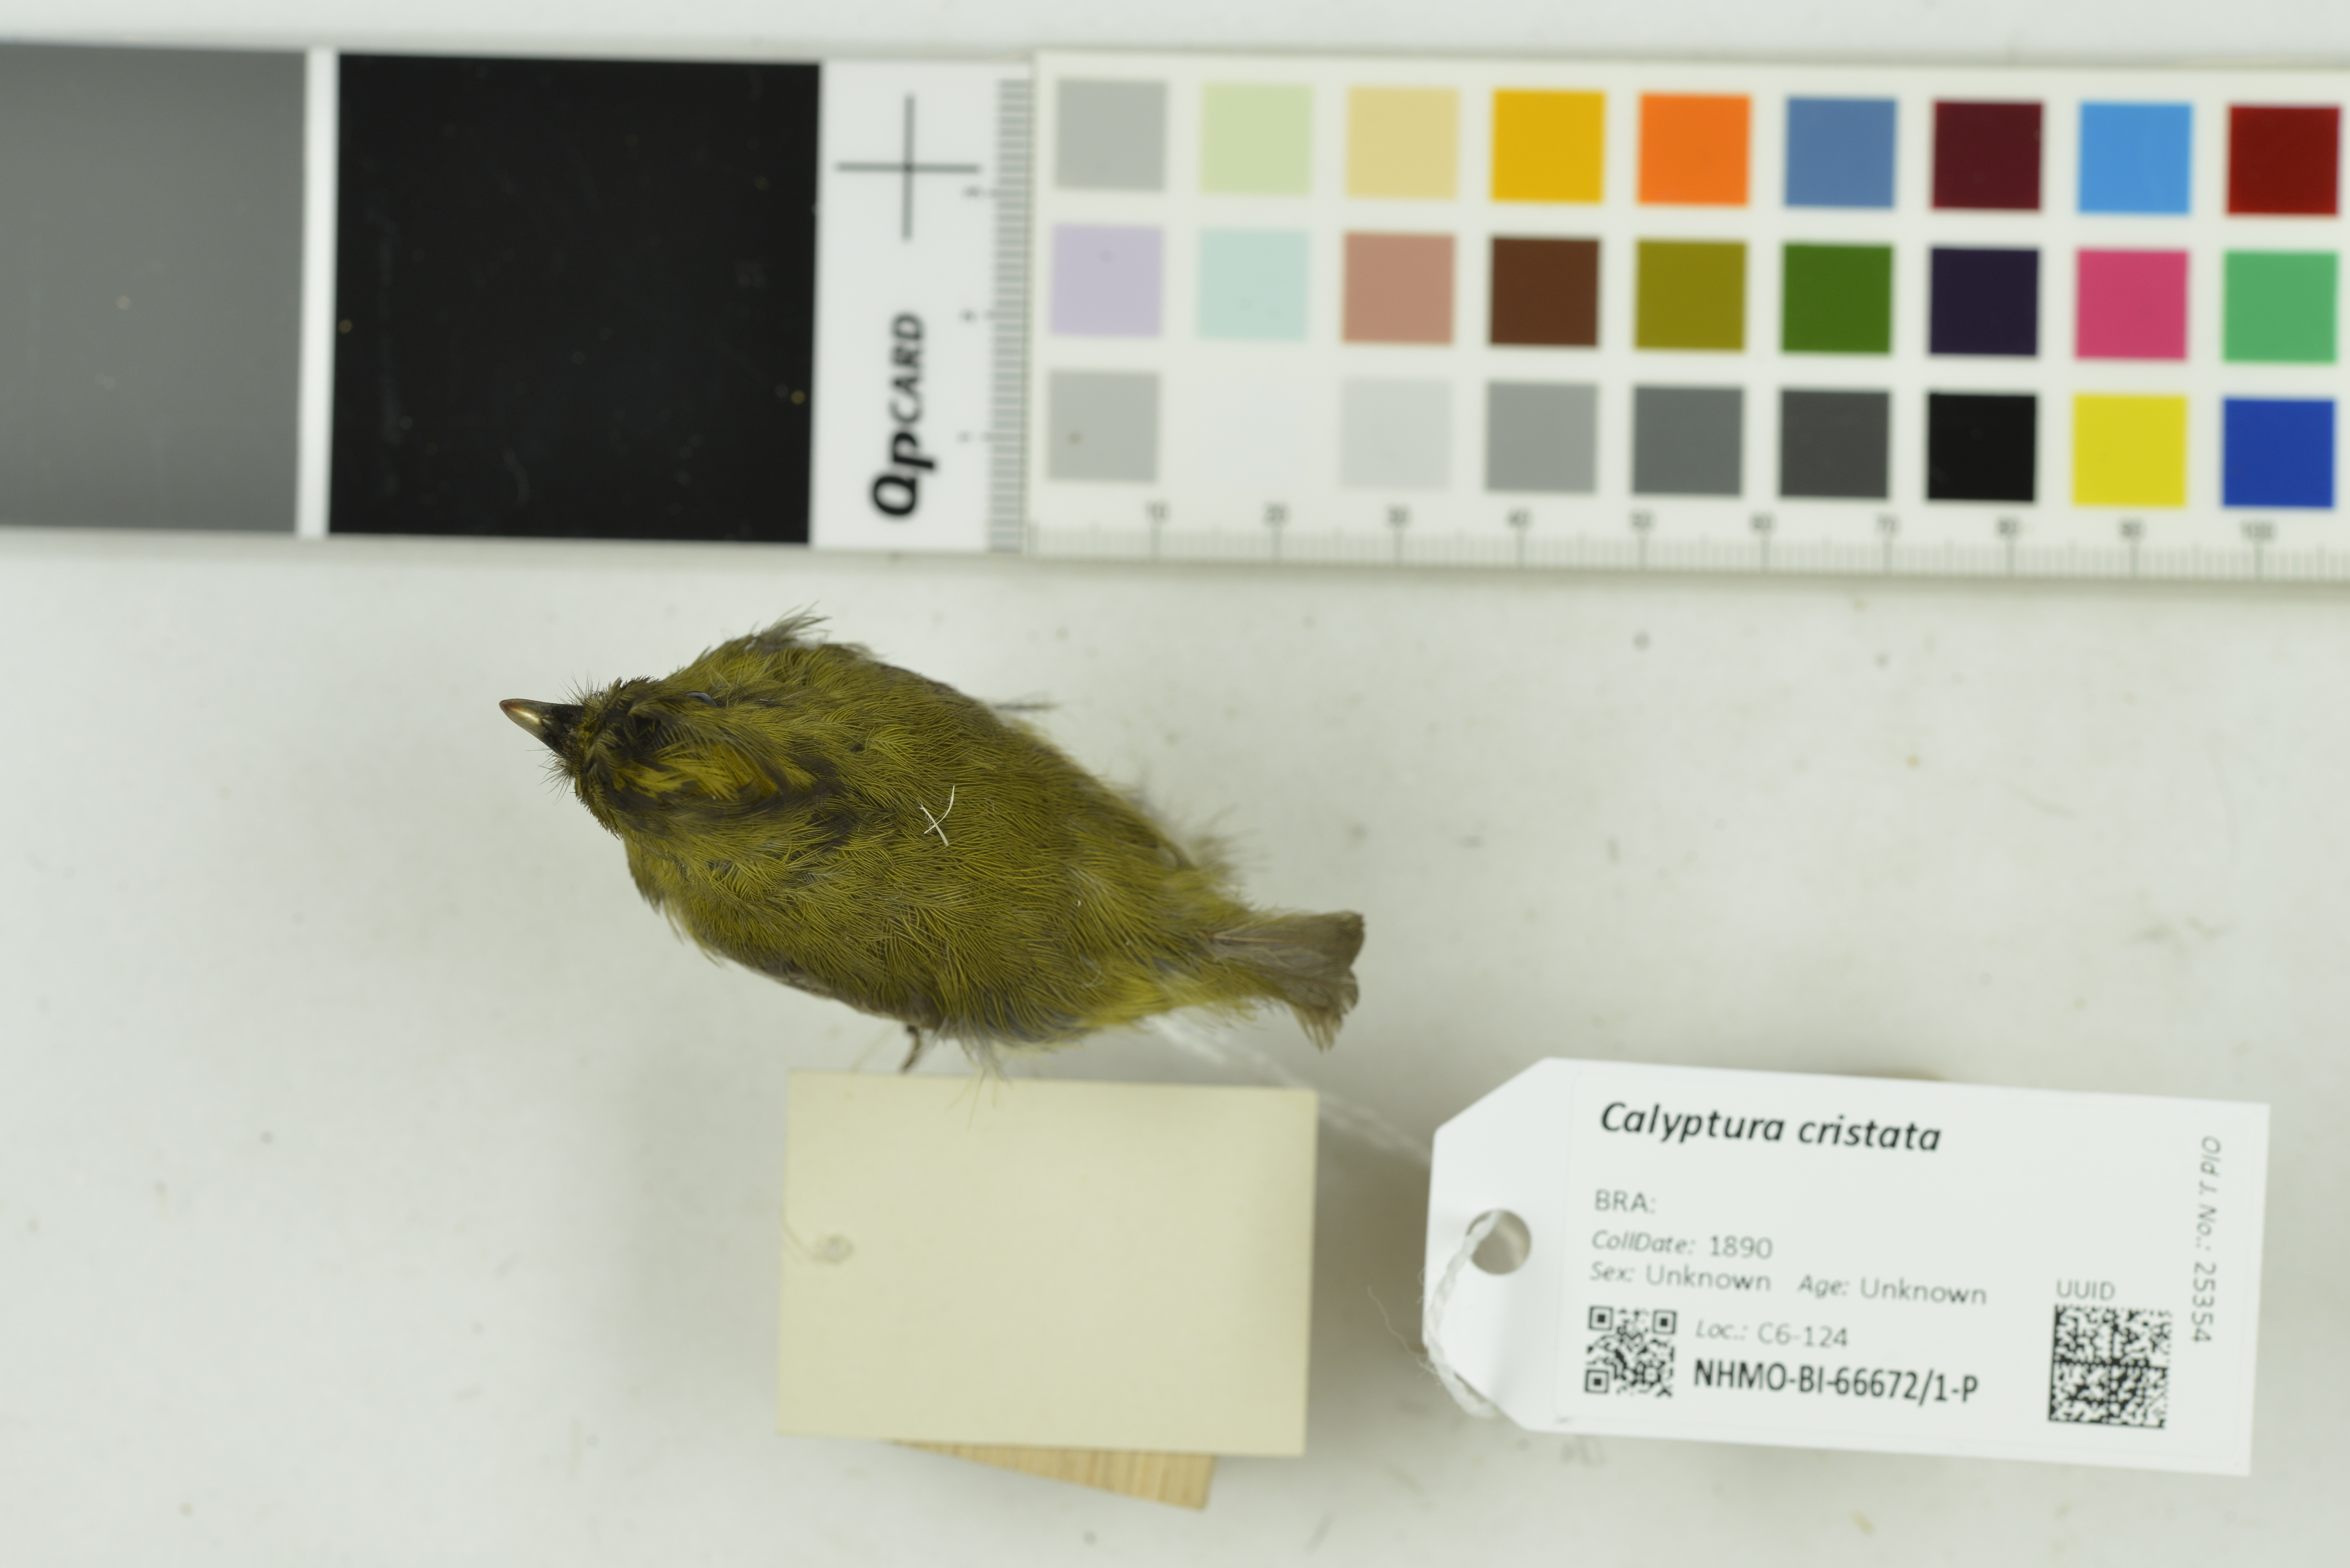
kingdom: Animalia
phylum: Chordata
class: Aves
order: Passeriformes
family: Cotingidae
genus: Calyptura
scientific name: Calyptura cristata
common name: Kinglet calyptura
